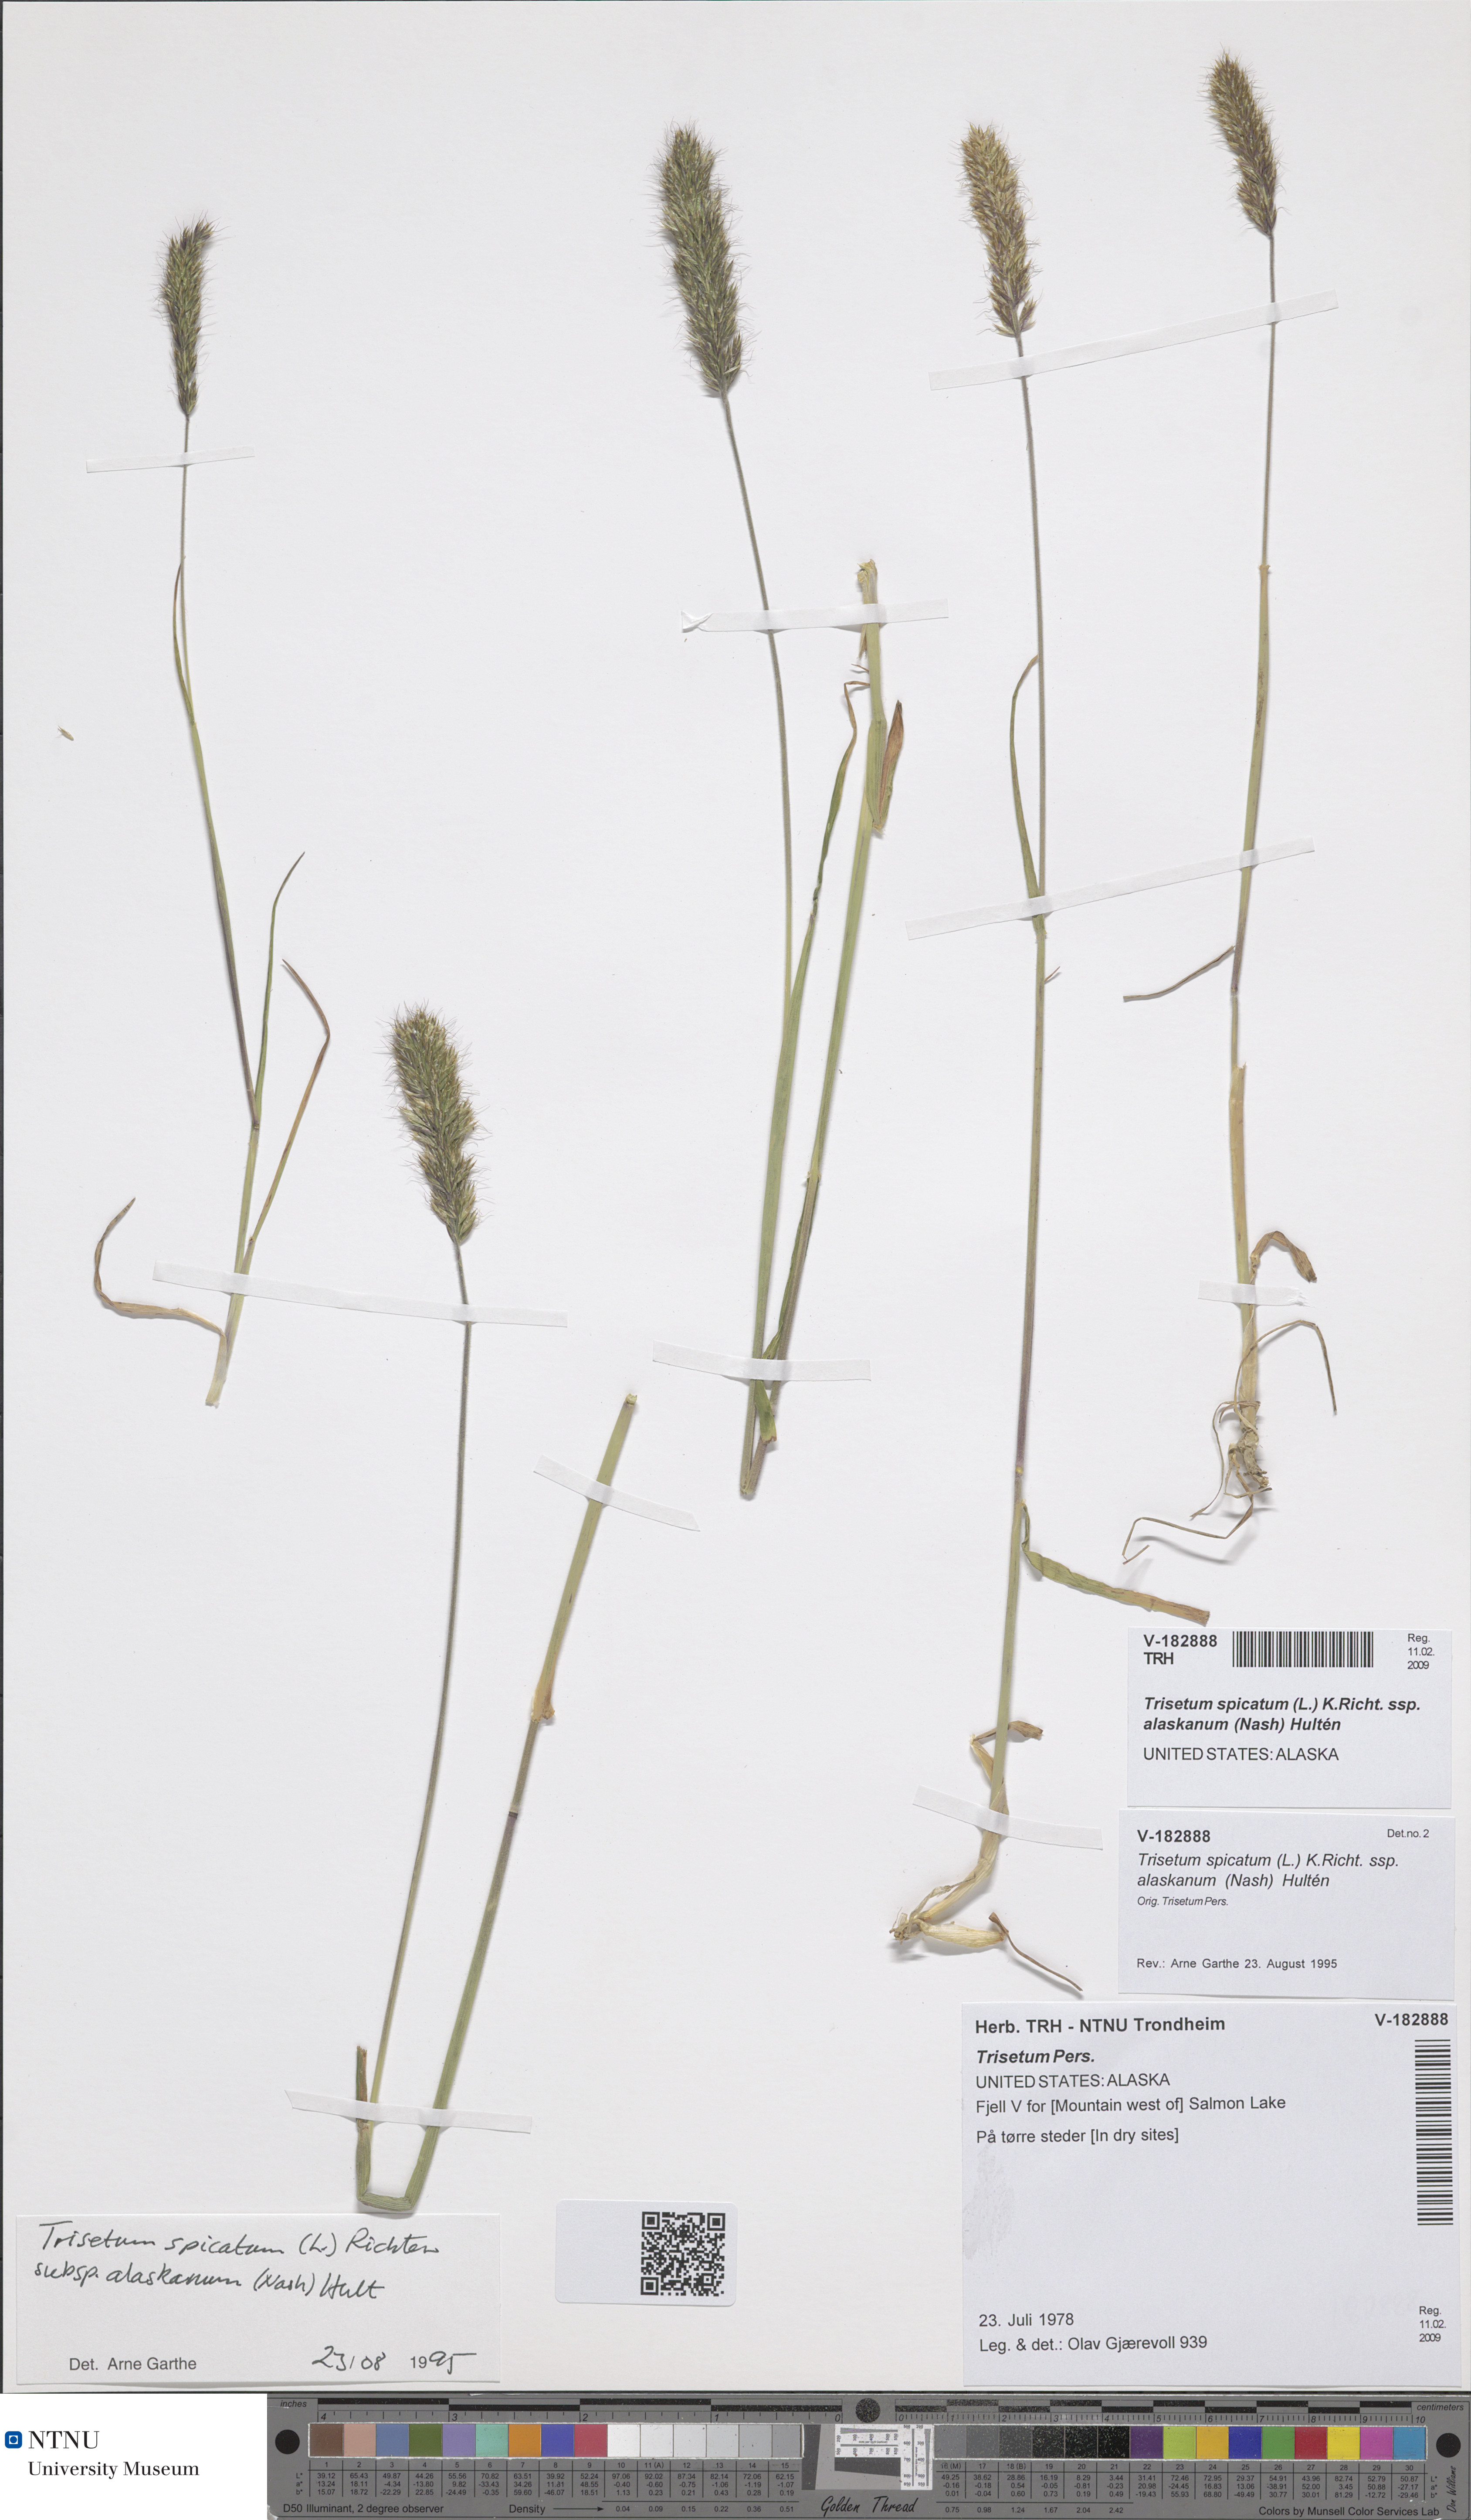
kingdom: Plantae
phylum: Tracheophyta
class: Liliopsida
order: Poales
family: Poaceae
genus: Koeleria
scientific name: Koeleria spicata
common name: Mountain trisetum
